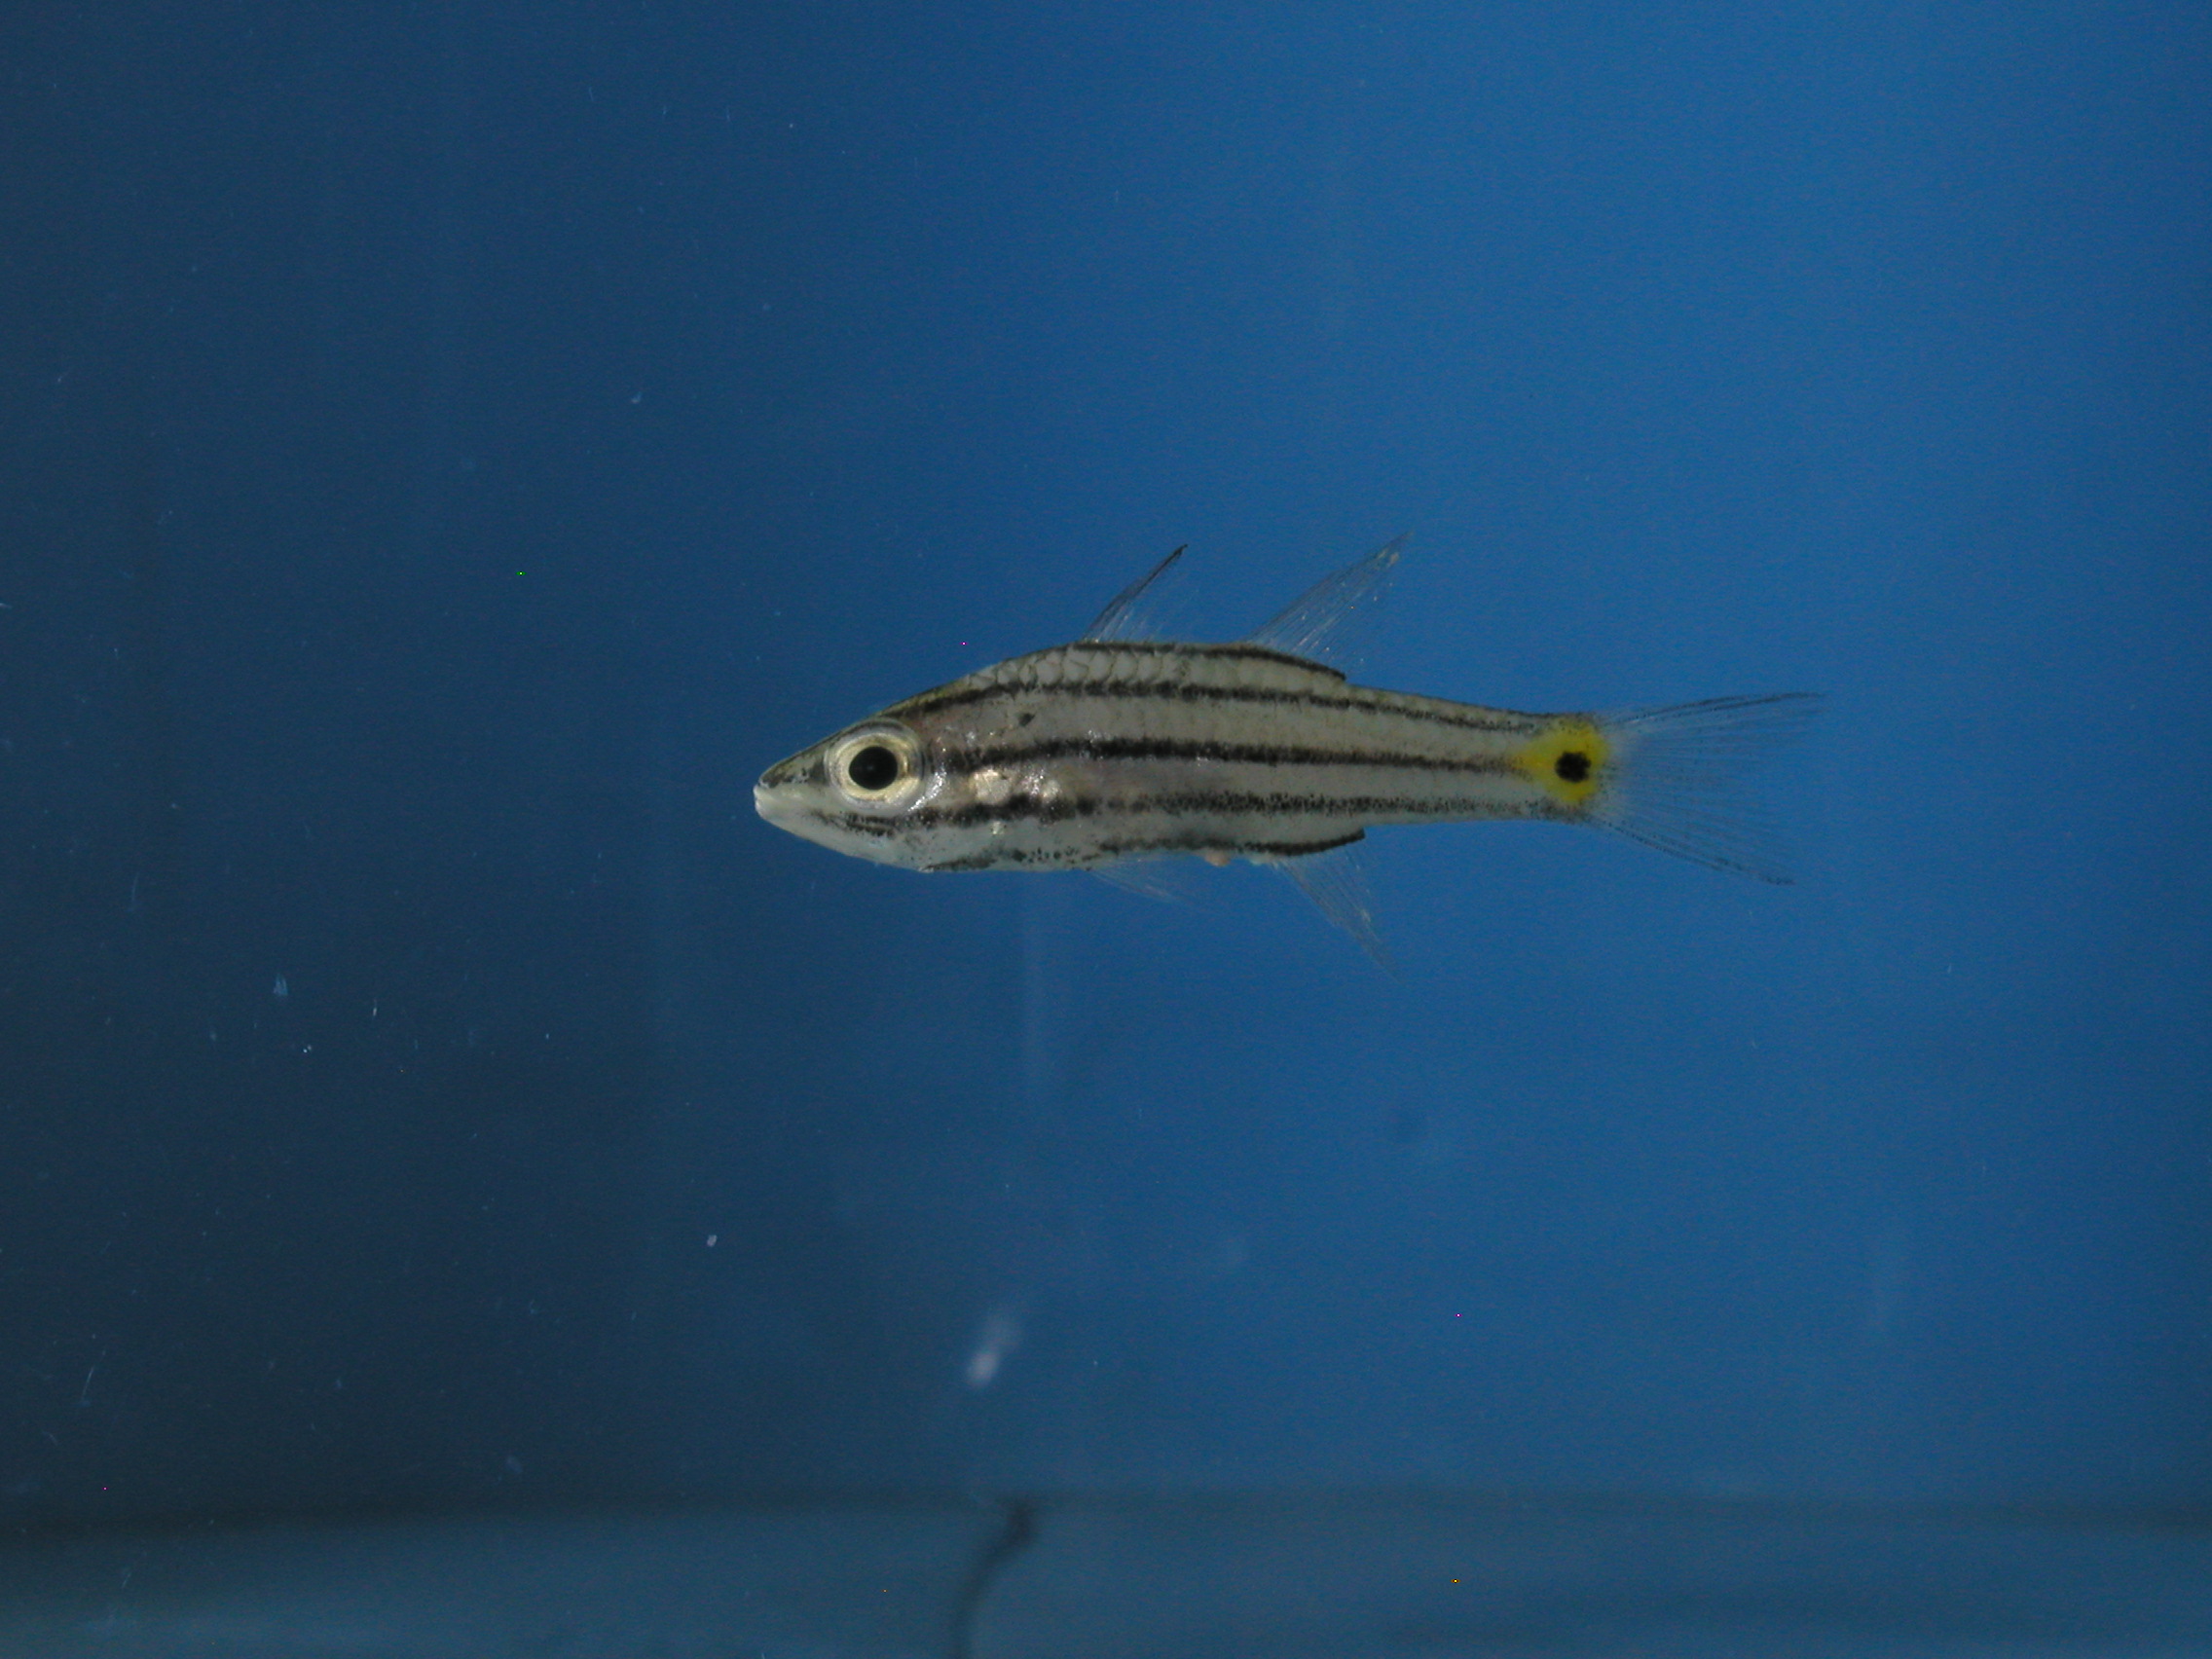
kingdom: Animalia
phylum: Chordata
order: Perciformes
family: Apogonidae
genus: Cheilodipterus
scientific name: Cheilodipterus quinquelineatus
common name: Five-lined cardinalfish
